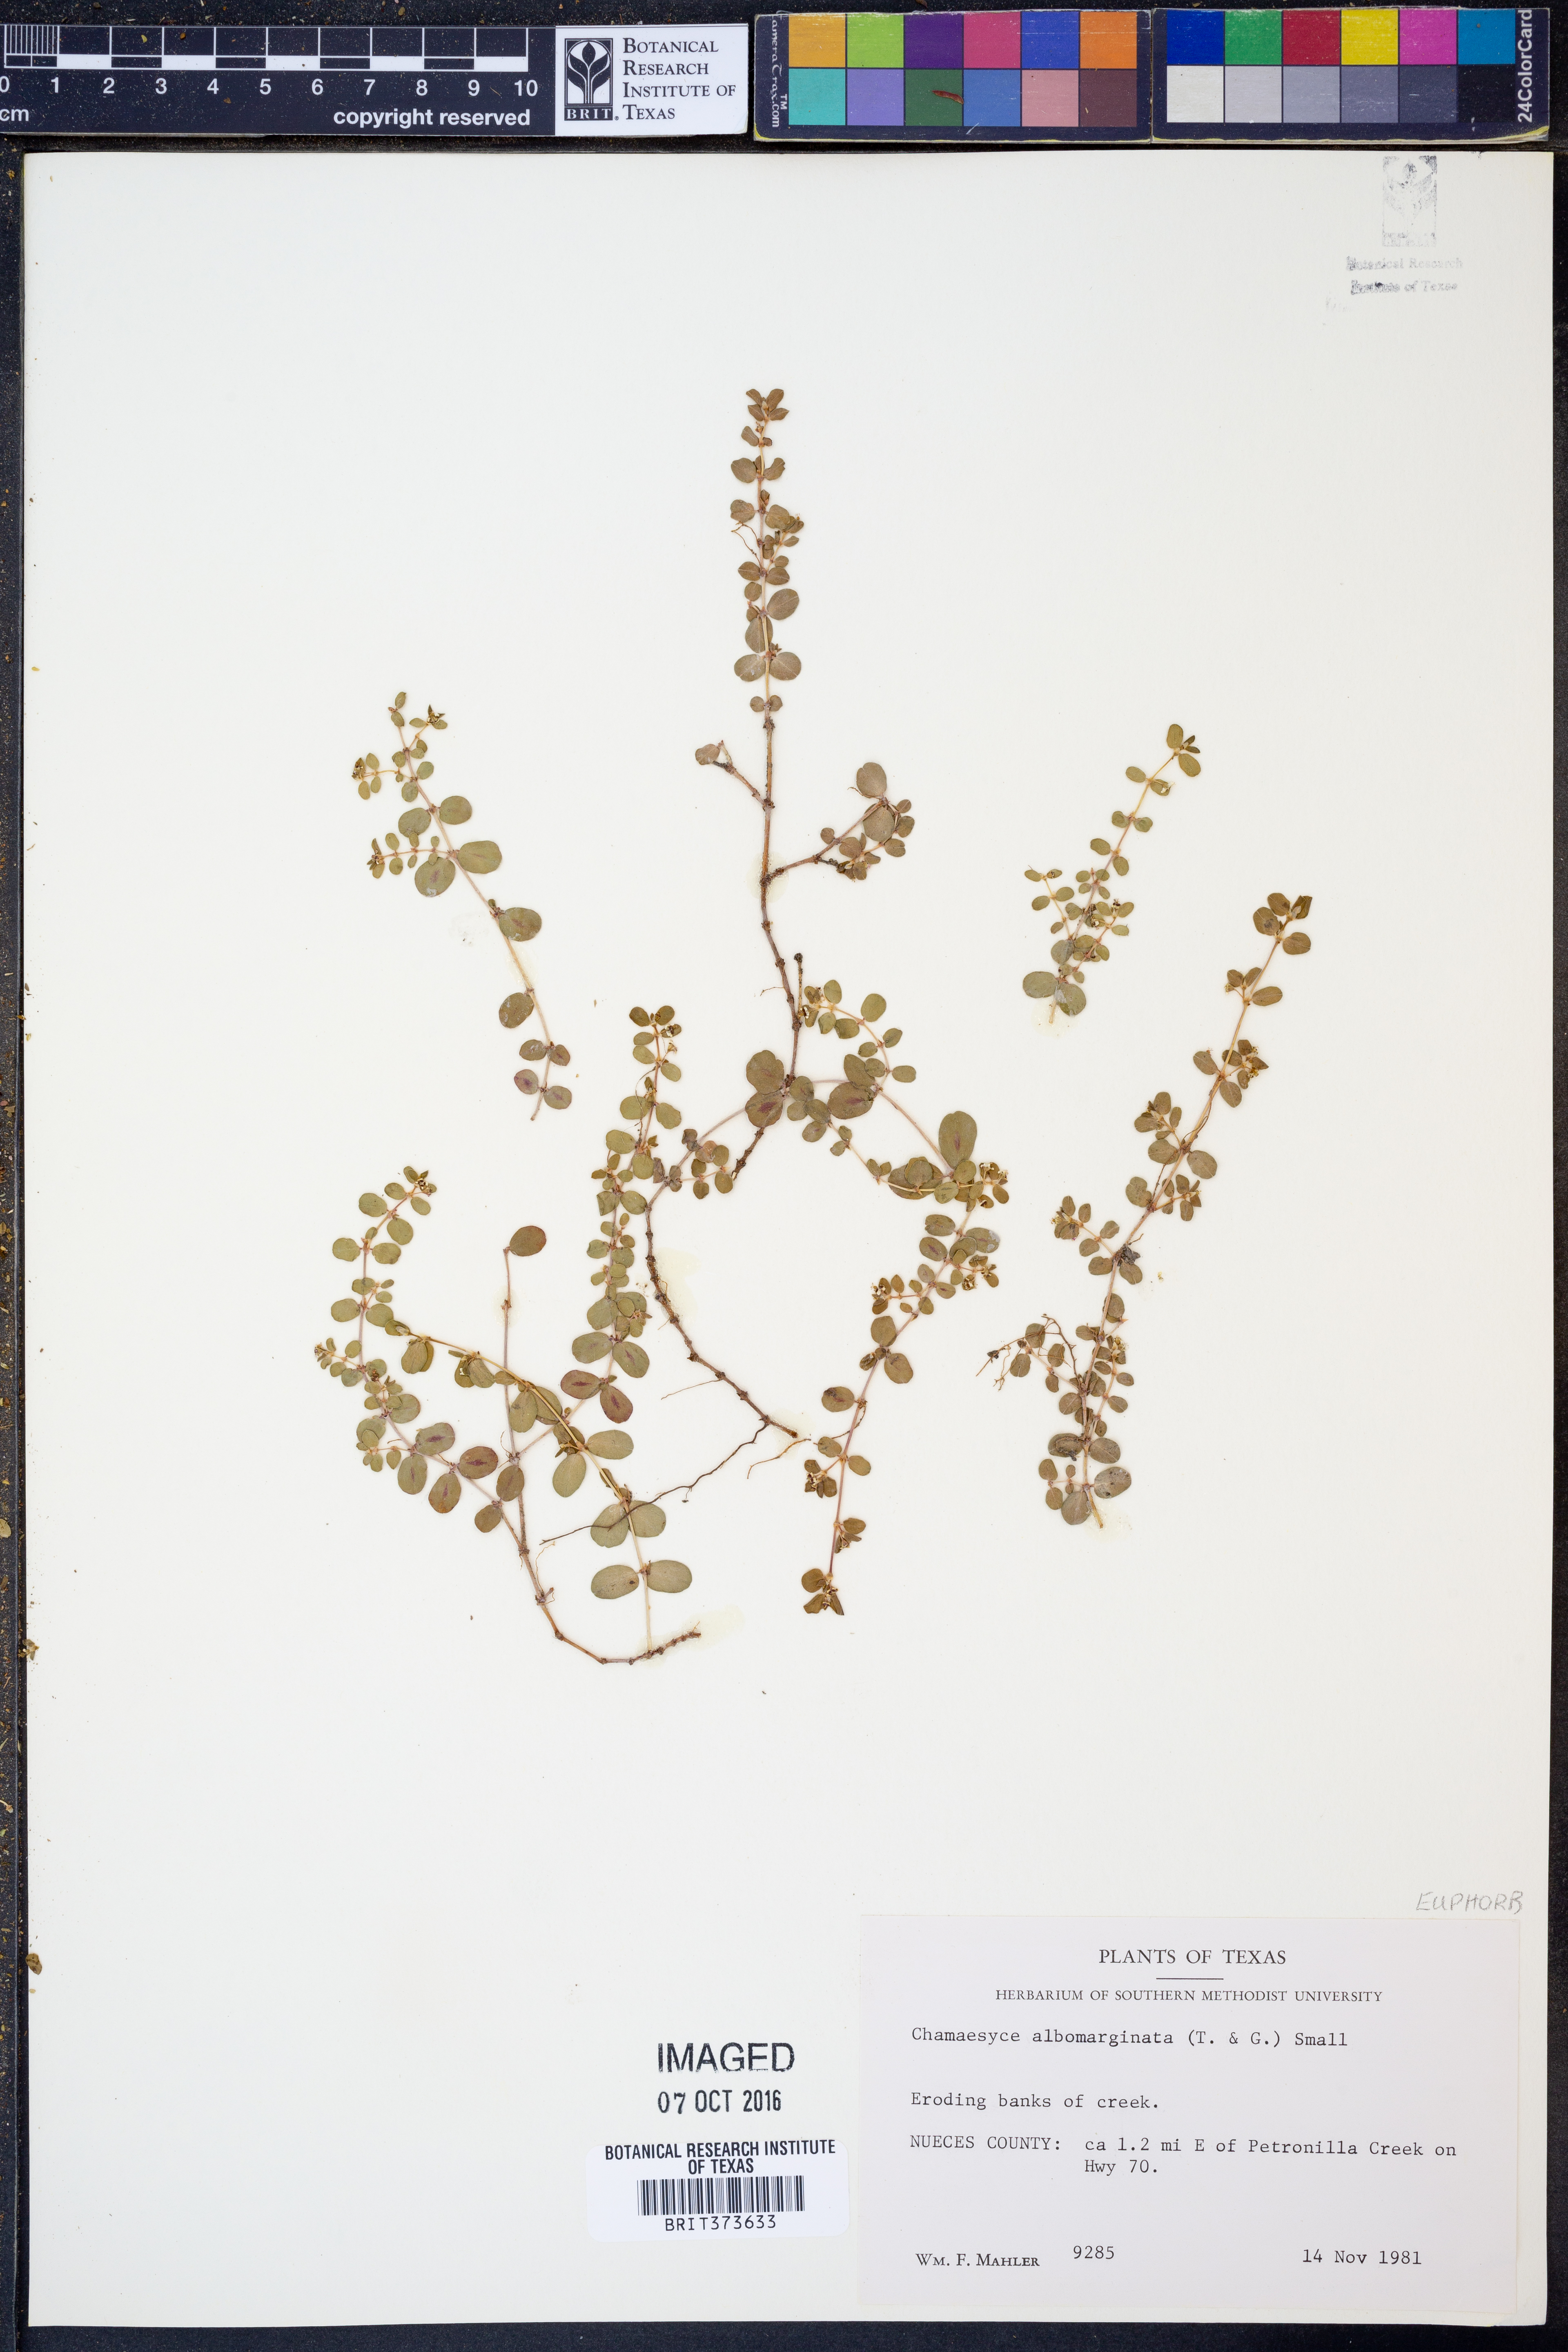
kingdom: Plantae
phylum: Tracheophyta
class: Magnoliopsida
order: Malpighiales
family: Euphorbiaceae
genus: Euphorbia
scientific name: Euphorbia albomarginata
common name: Whitemargin sandmat
